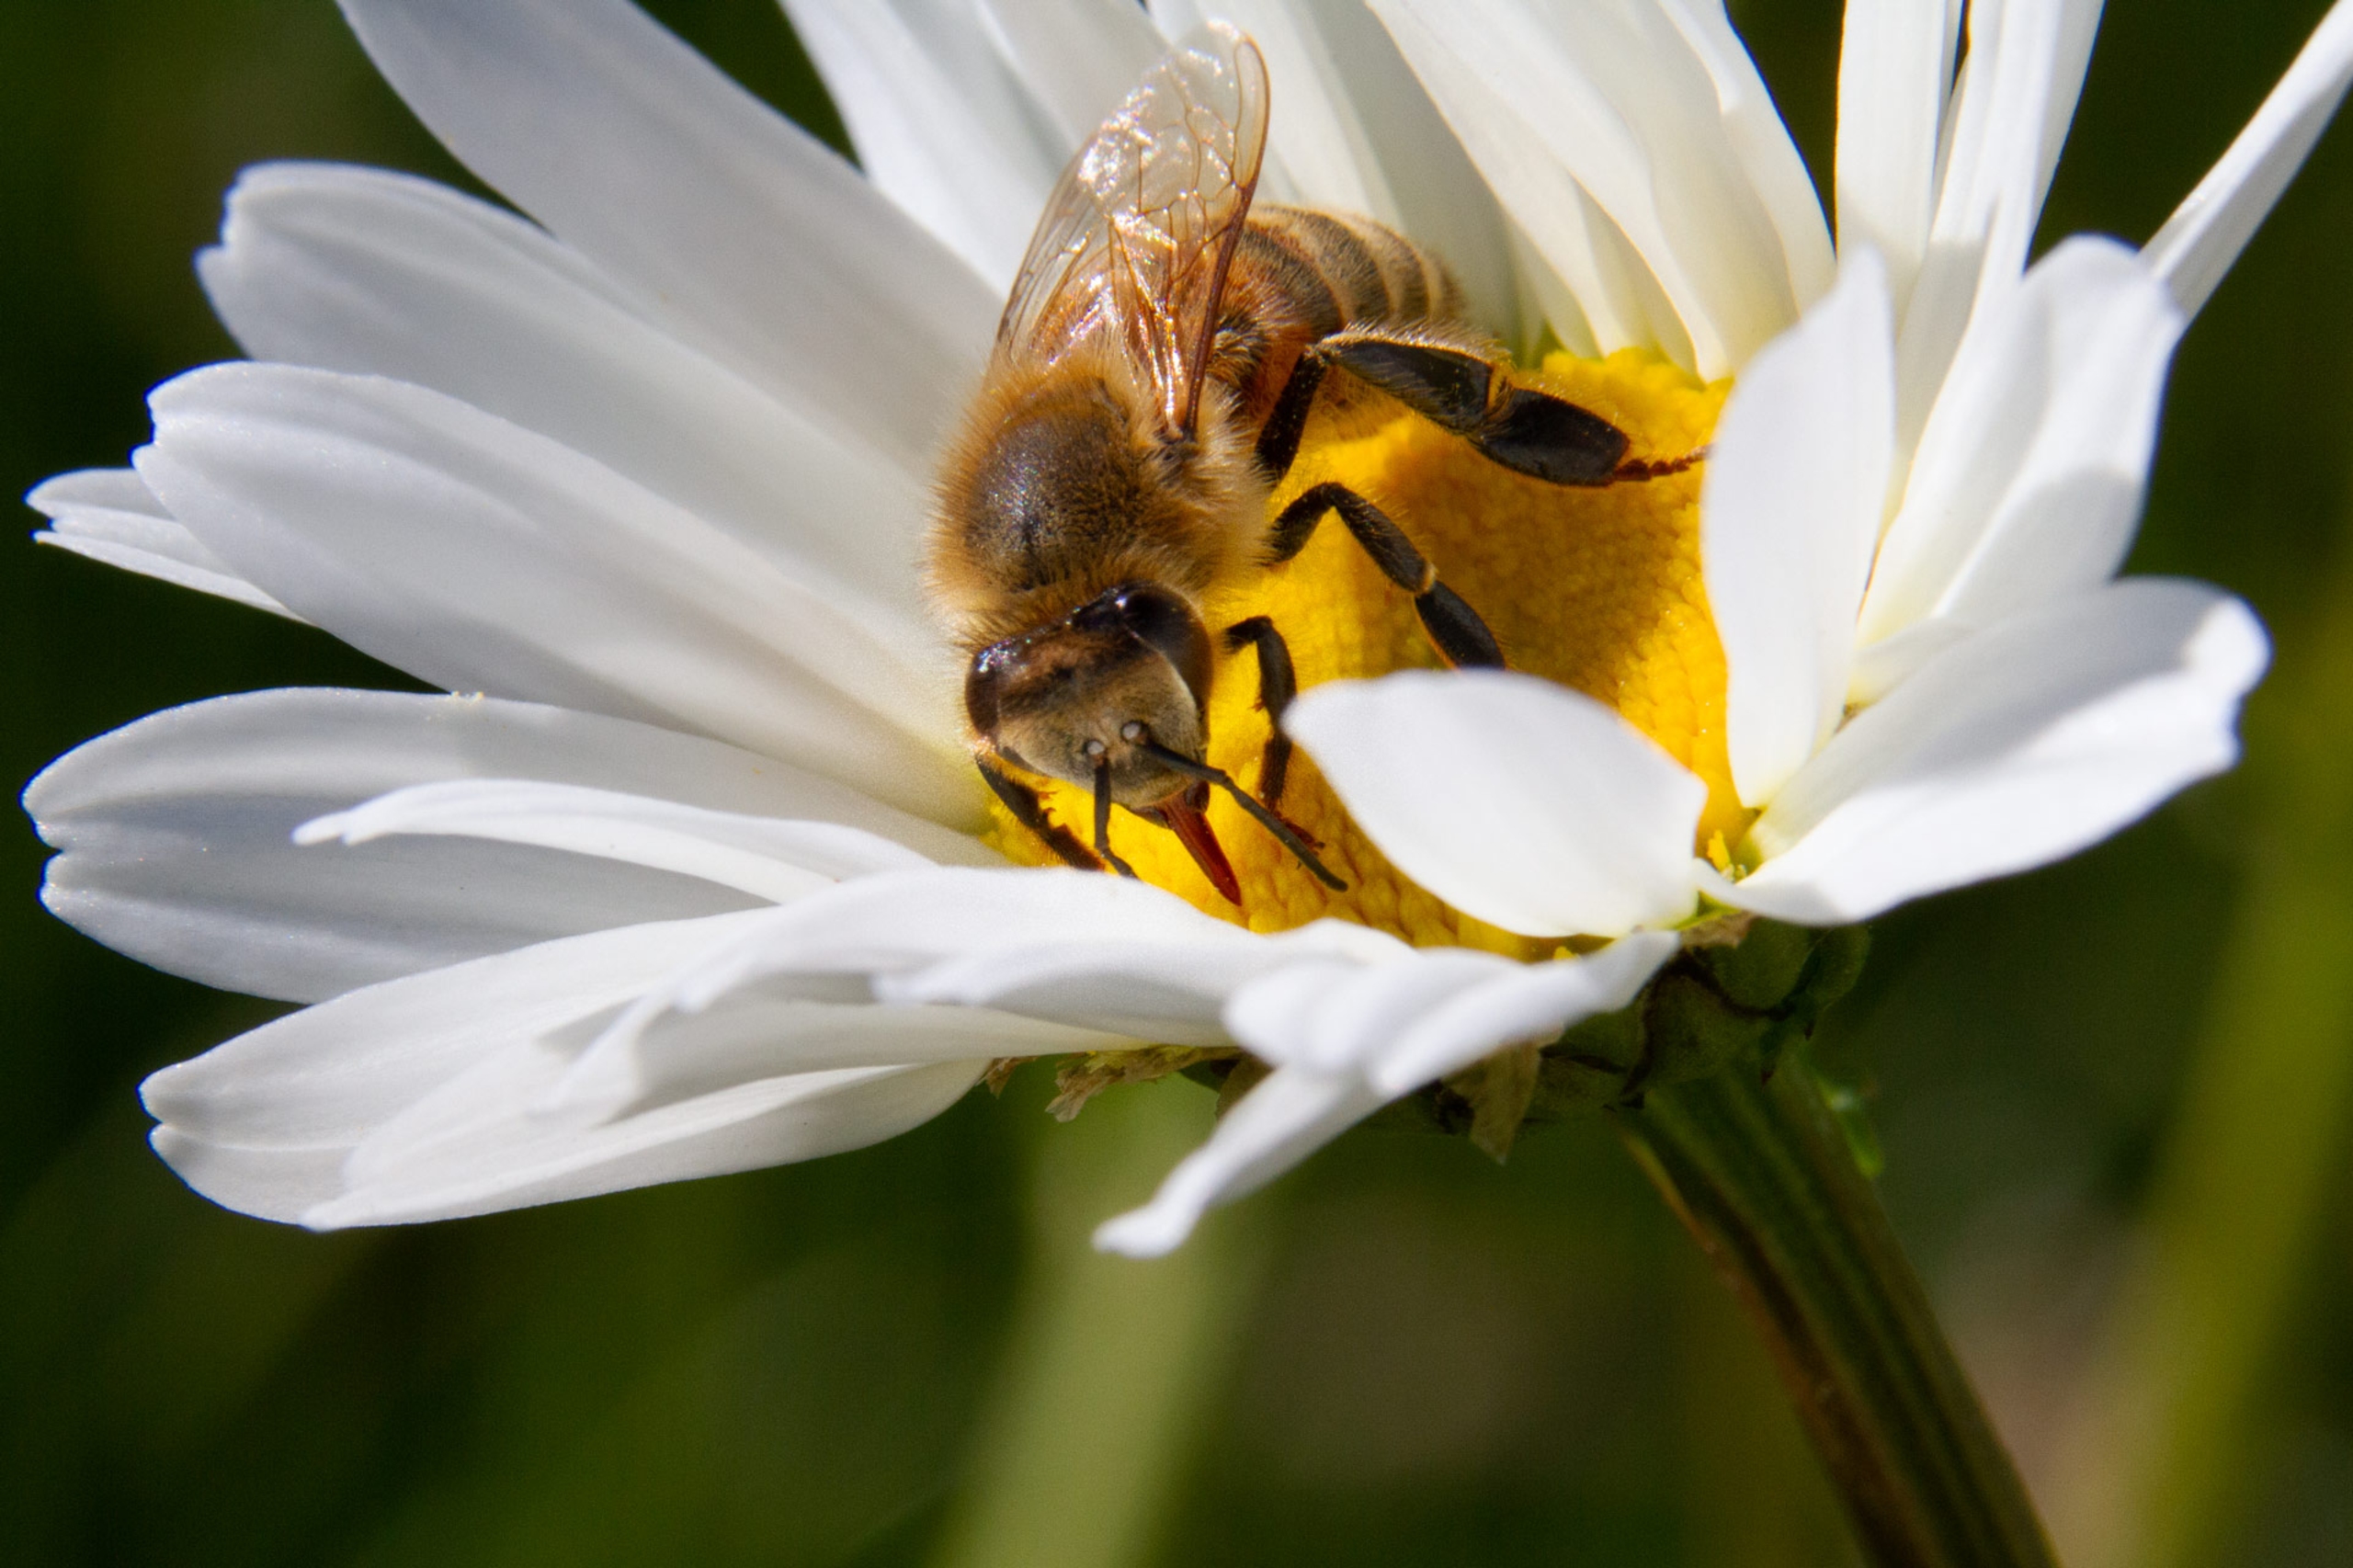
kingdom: Animalia
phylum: Arthropoda
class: Insecta
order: Hymenoptera
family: Apidae
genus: Apis
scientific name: Apis mellifera
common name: Honningbi
